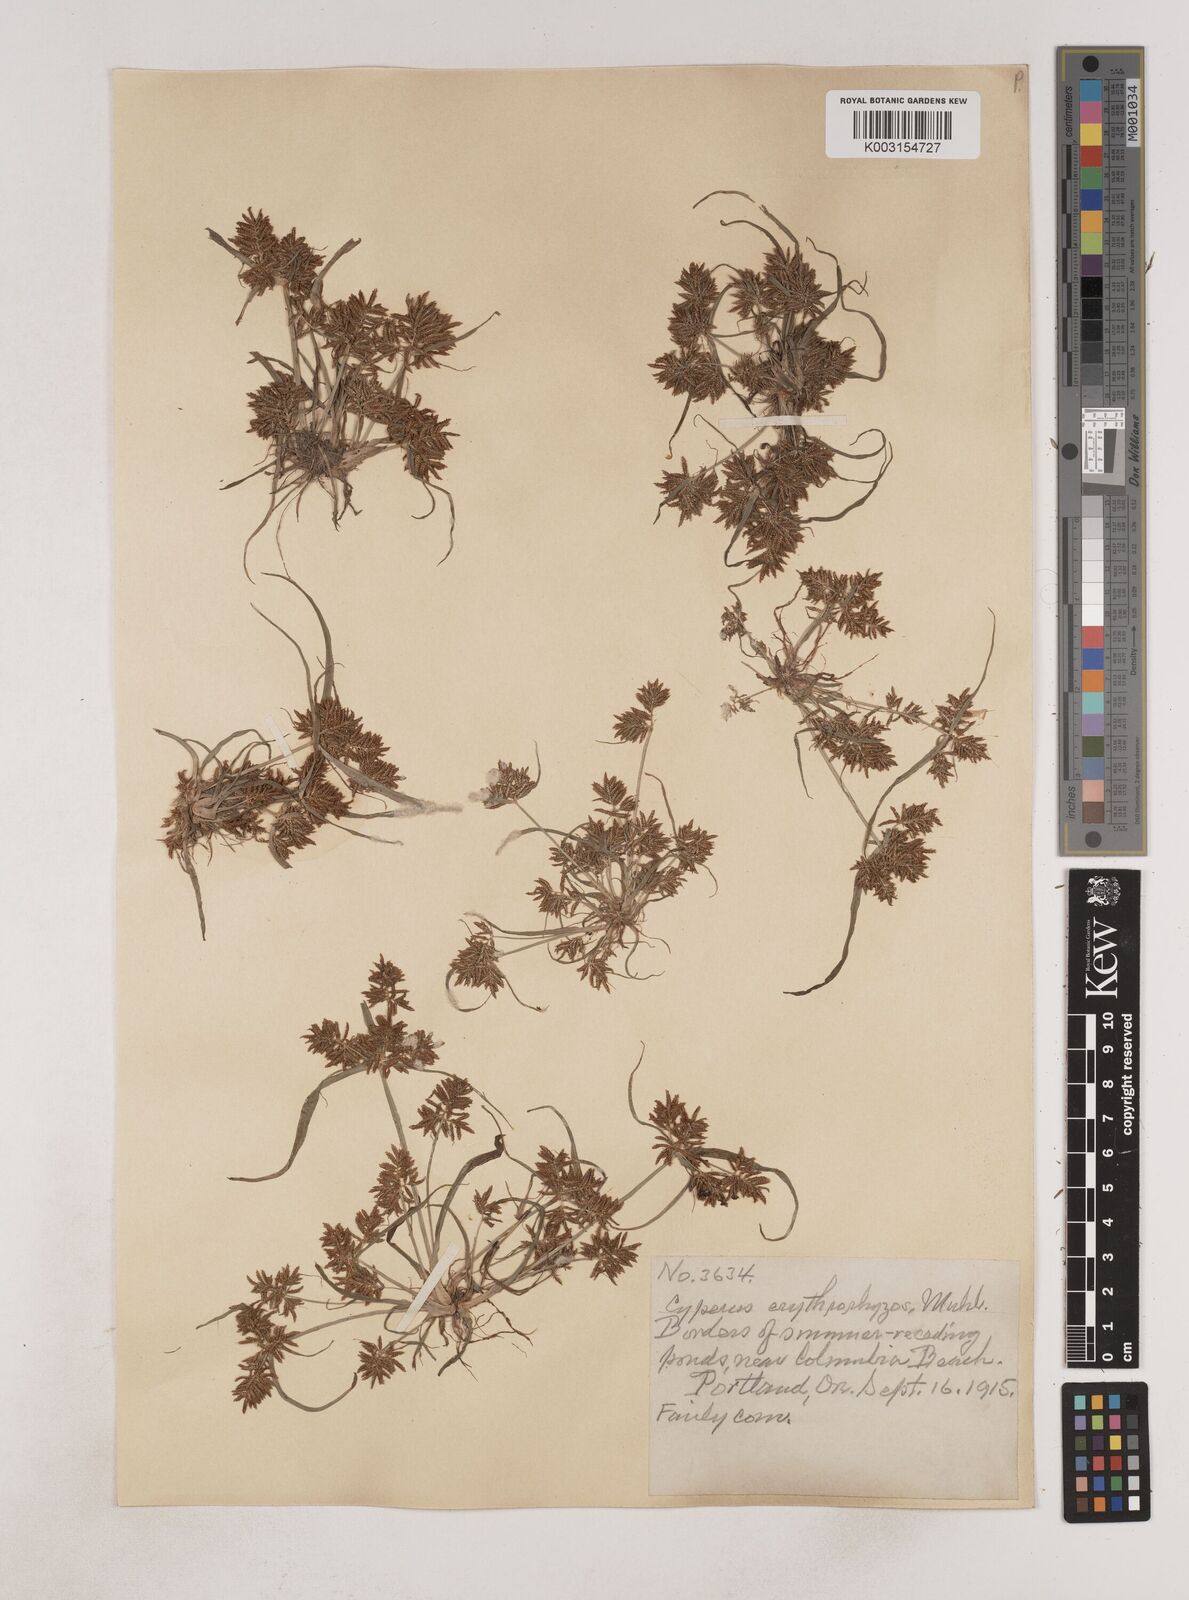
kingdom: Plantae
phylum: Tracheophyta
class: Liliopsida
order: Poales
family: Cyperaceae
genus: Cyperus
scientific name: Cyperus erythrorhizos
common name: Red-root flat sedge
